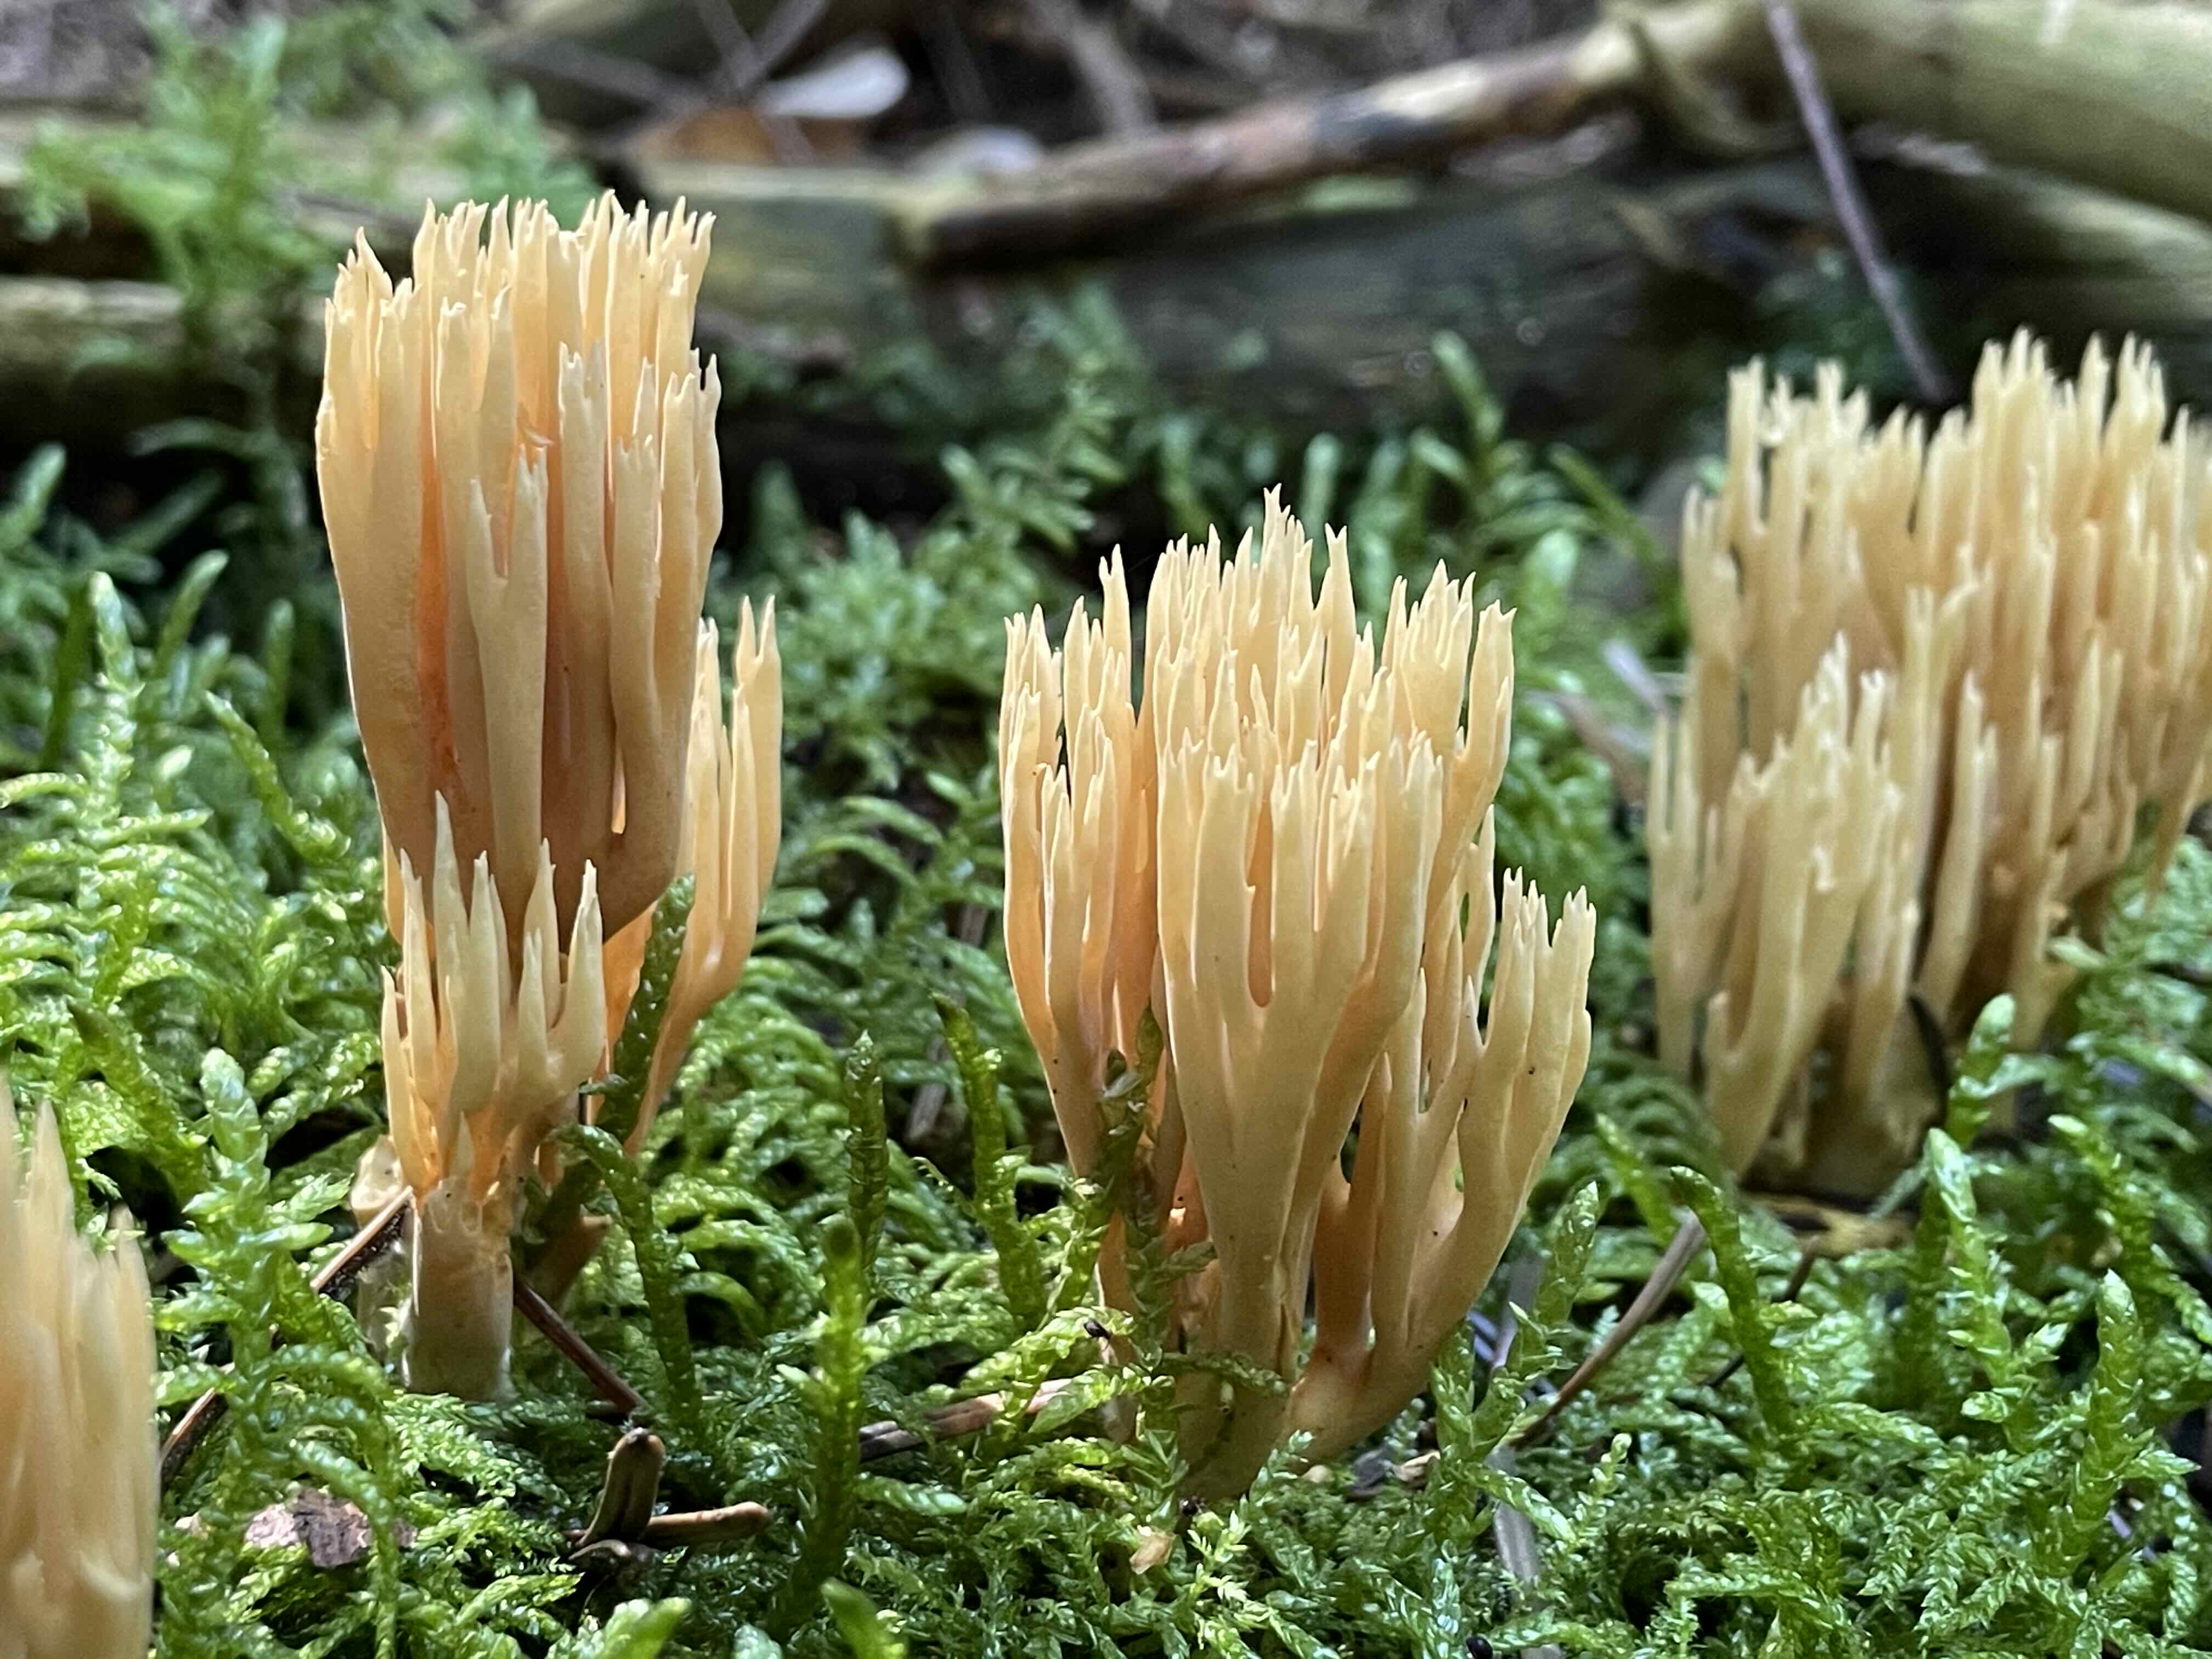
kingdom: Fungi
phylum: Basidiomycota
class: Agaricomycetes
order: Gomphales
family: Gomphaceae
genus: Phaeoclavulina
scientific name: Phaeoclavulina eumorpha
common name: gran-koralsvamp
